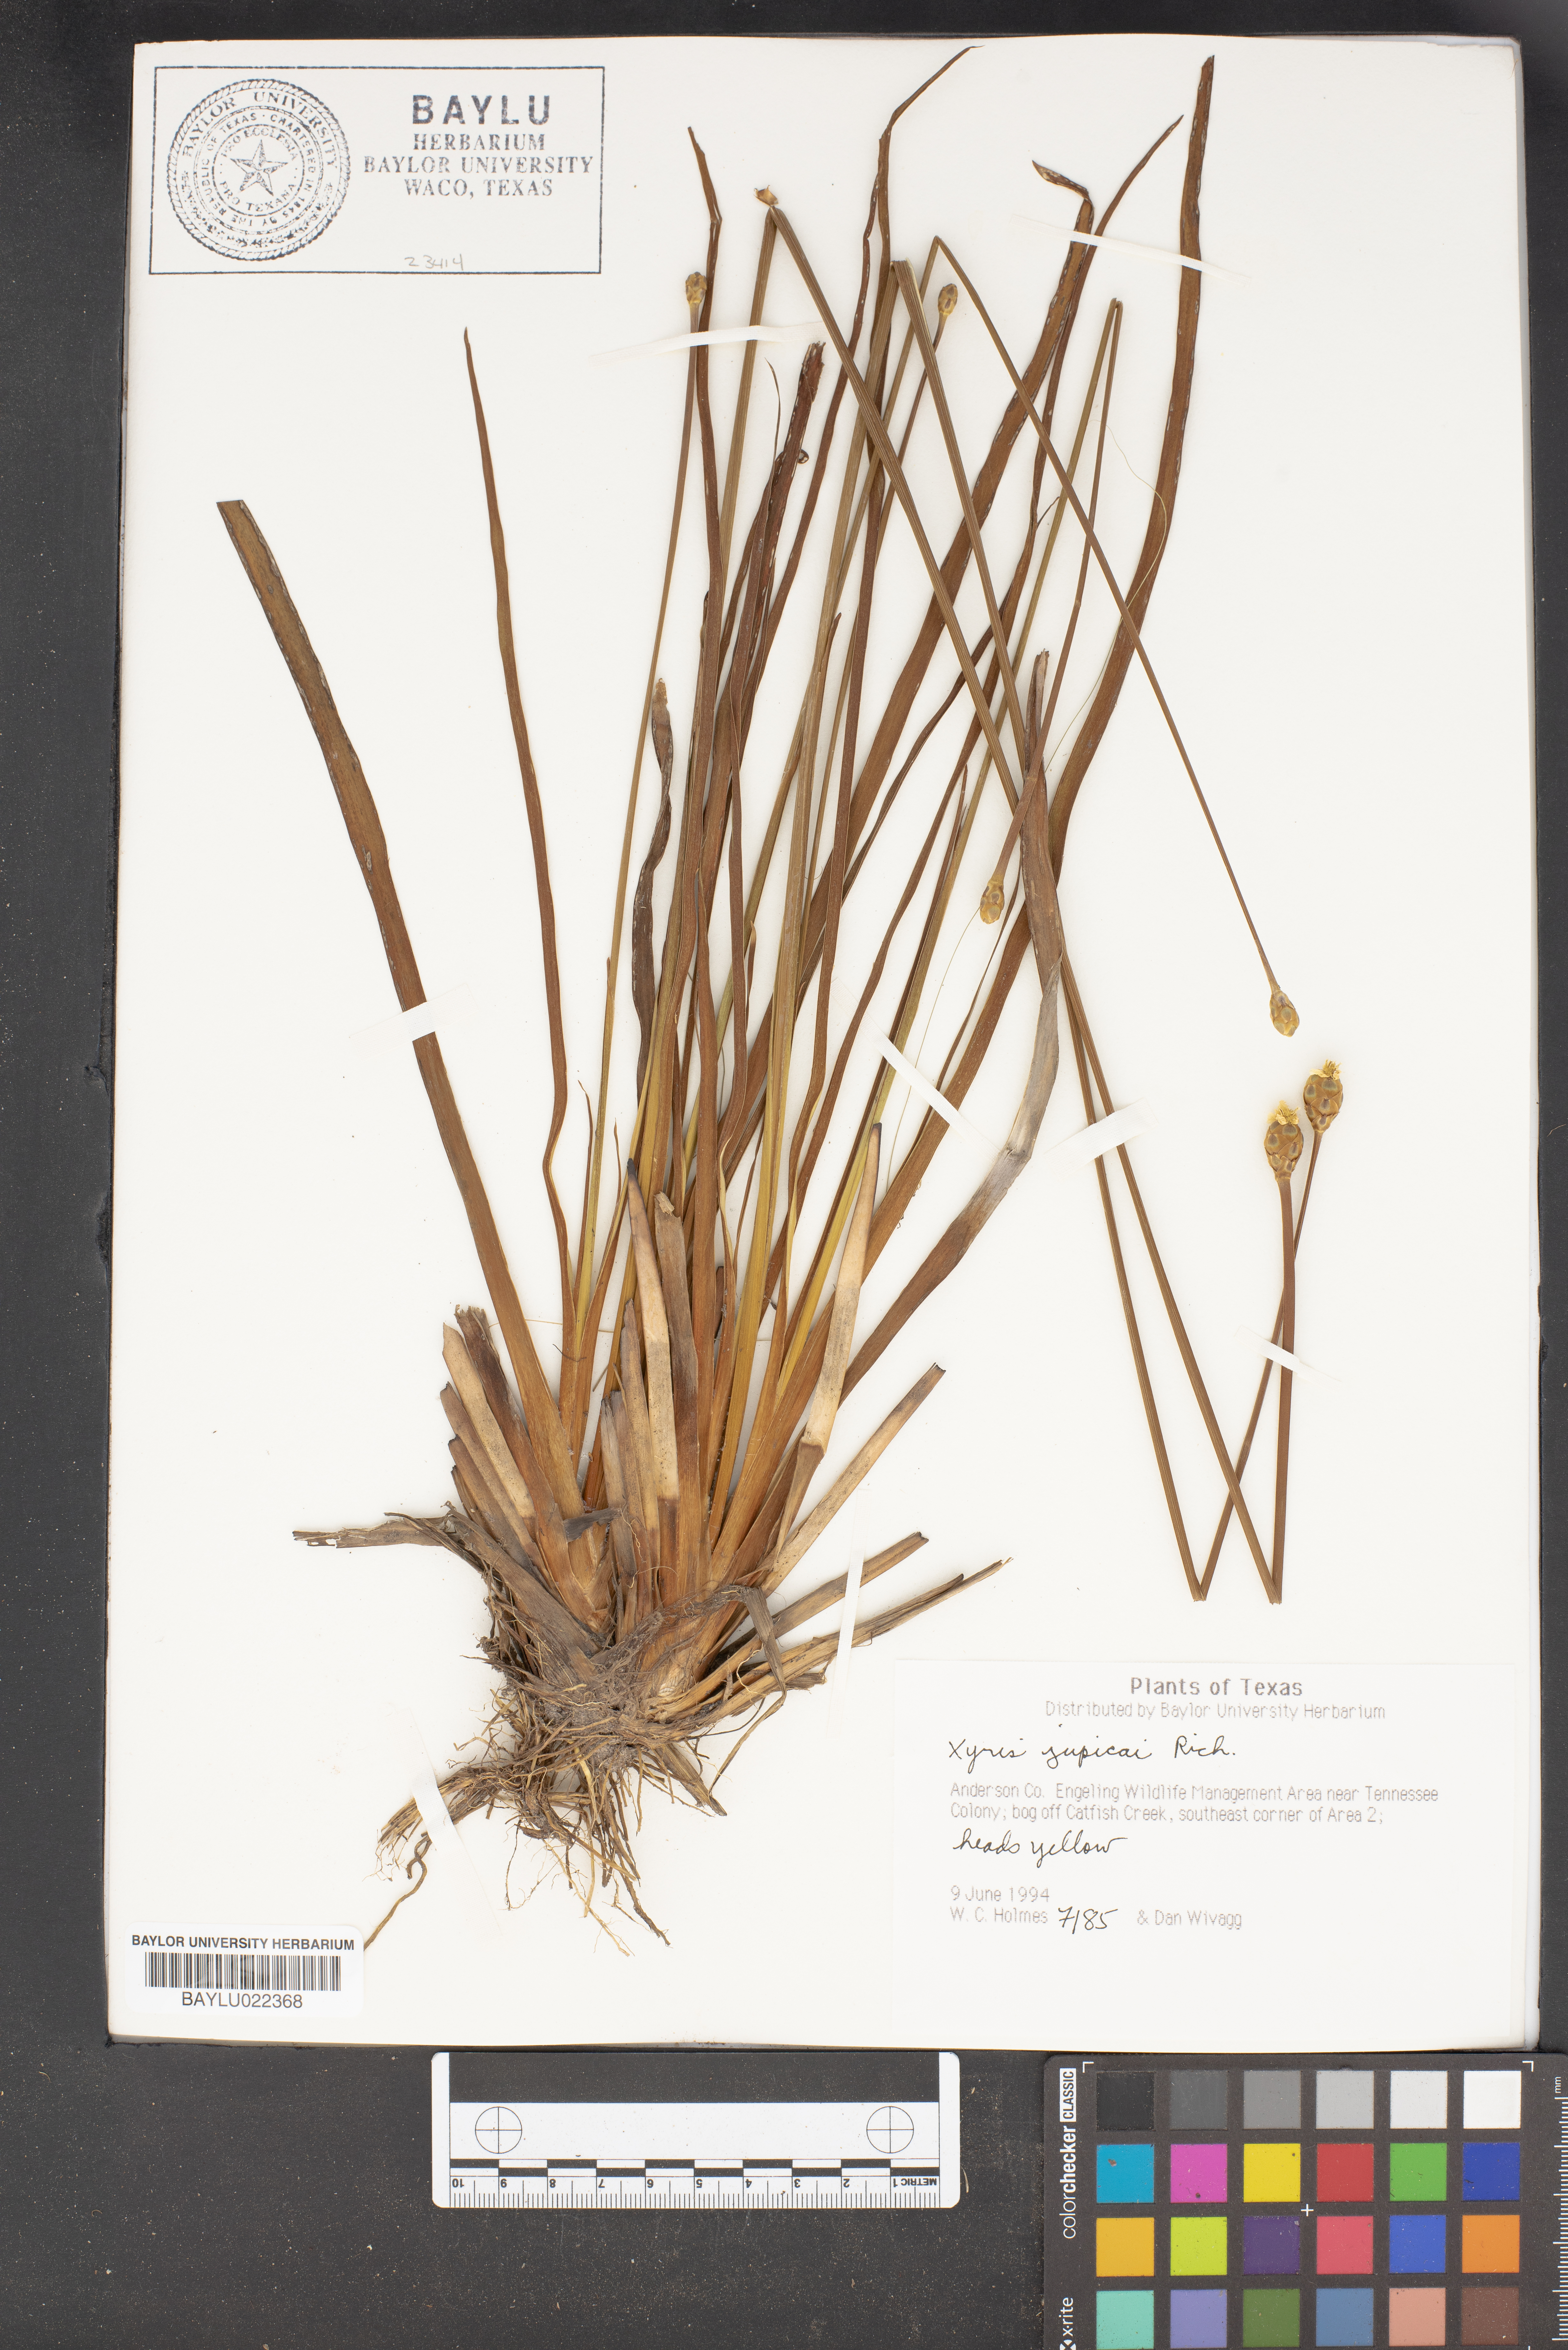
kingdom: Plantae
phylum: Tracheophyta
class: Liliopsida
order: Poales
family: Xyridaceae
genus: Xyris
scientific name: Xyris jupicai
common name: Richard's yelloweyed grass
